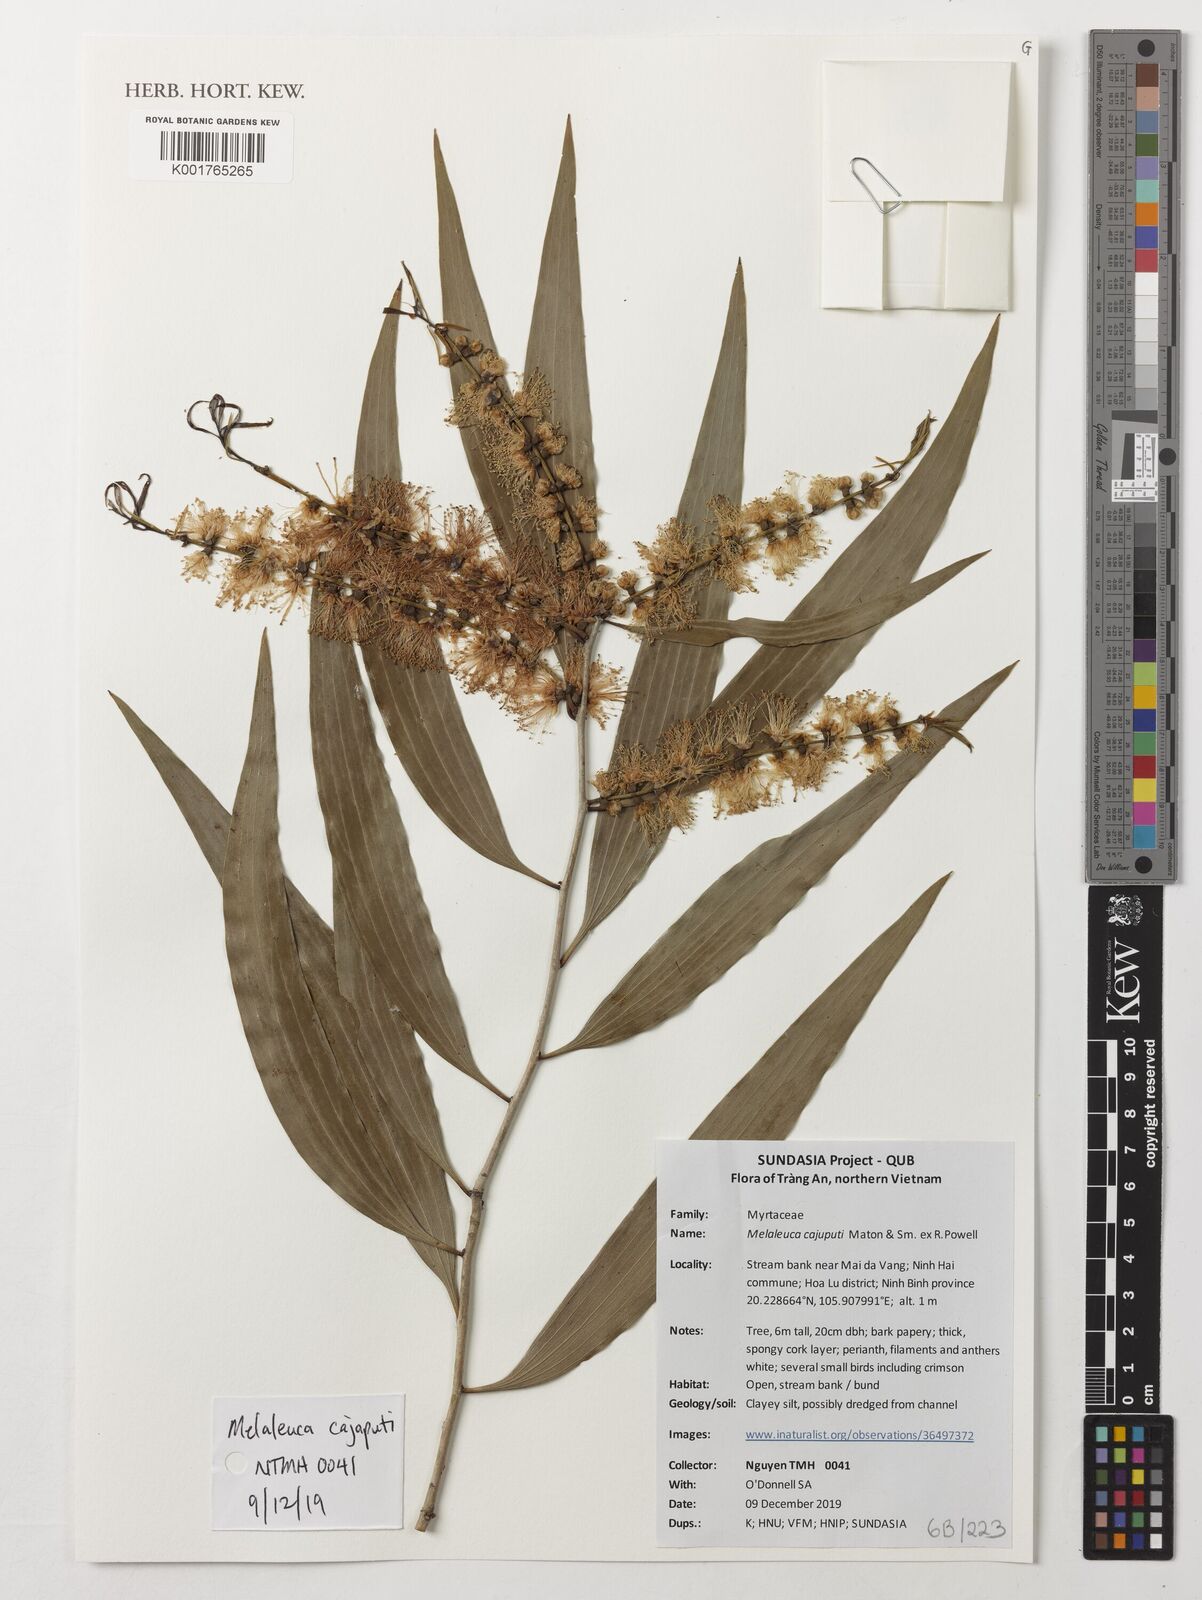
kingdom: Plantae
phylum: Tracheophyta
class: Magnoliopsida
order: Myrtales
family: Myrtaceae
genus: Melaleuca
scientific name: Melaleuca cajuputi
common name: Cajuput
